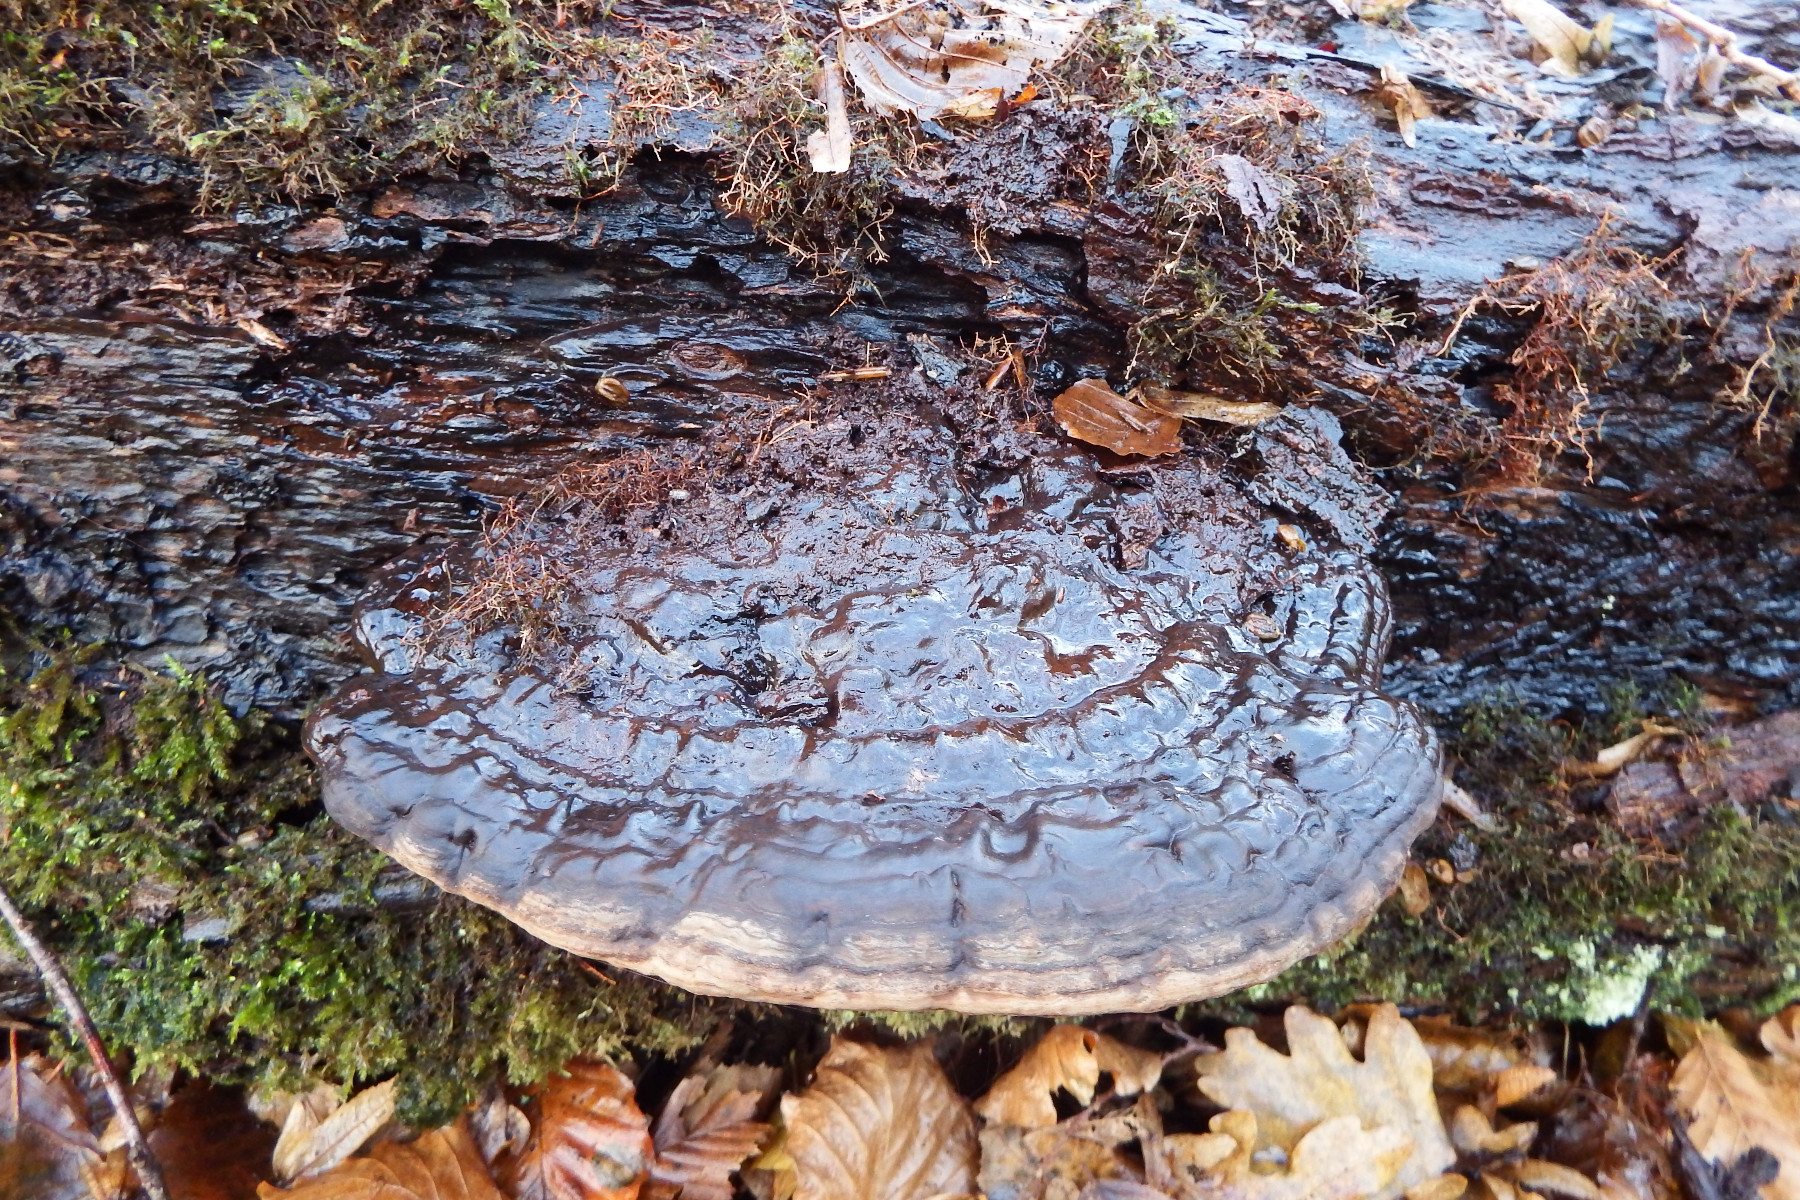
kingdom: Fungi
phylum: Basidiomycota
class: Agaricomycetes
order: Polyporales
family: Polyporaceae
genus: Ganoderma
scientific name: Ganoderma applanatum
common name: flad lakporesvamp
